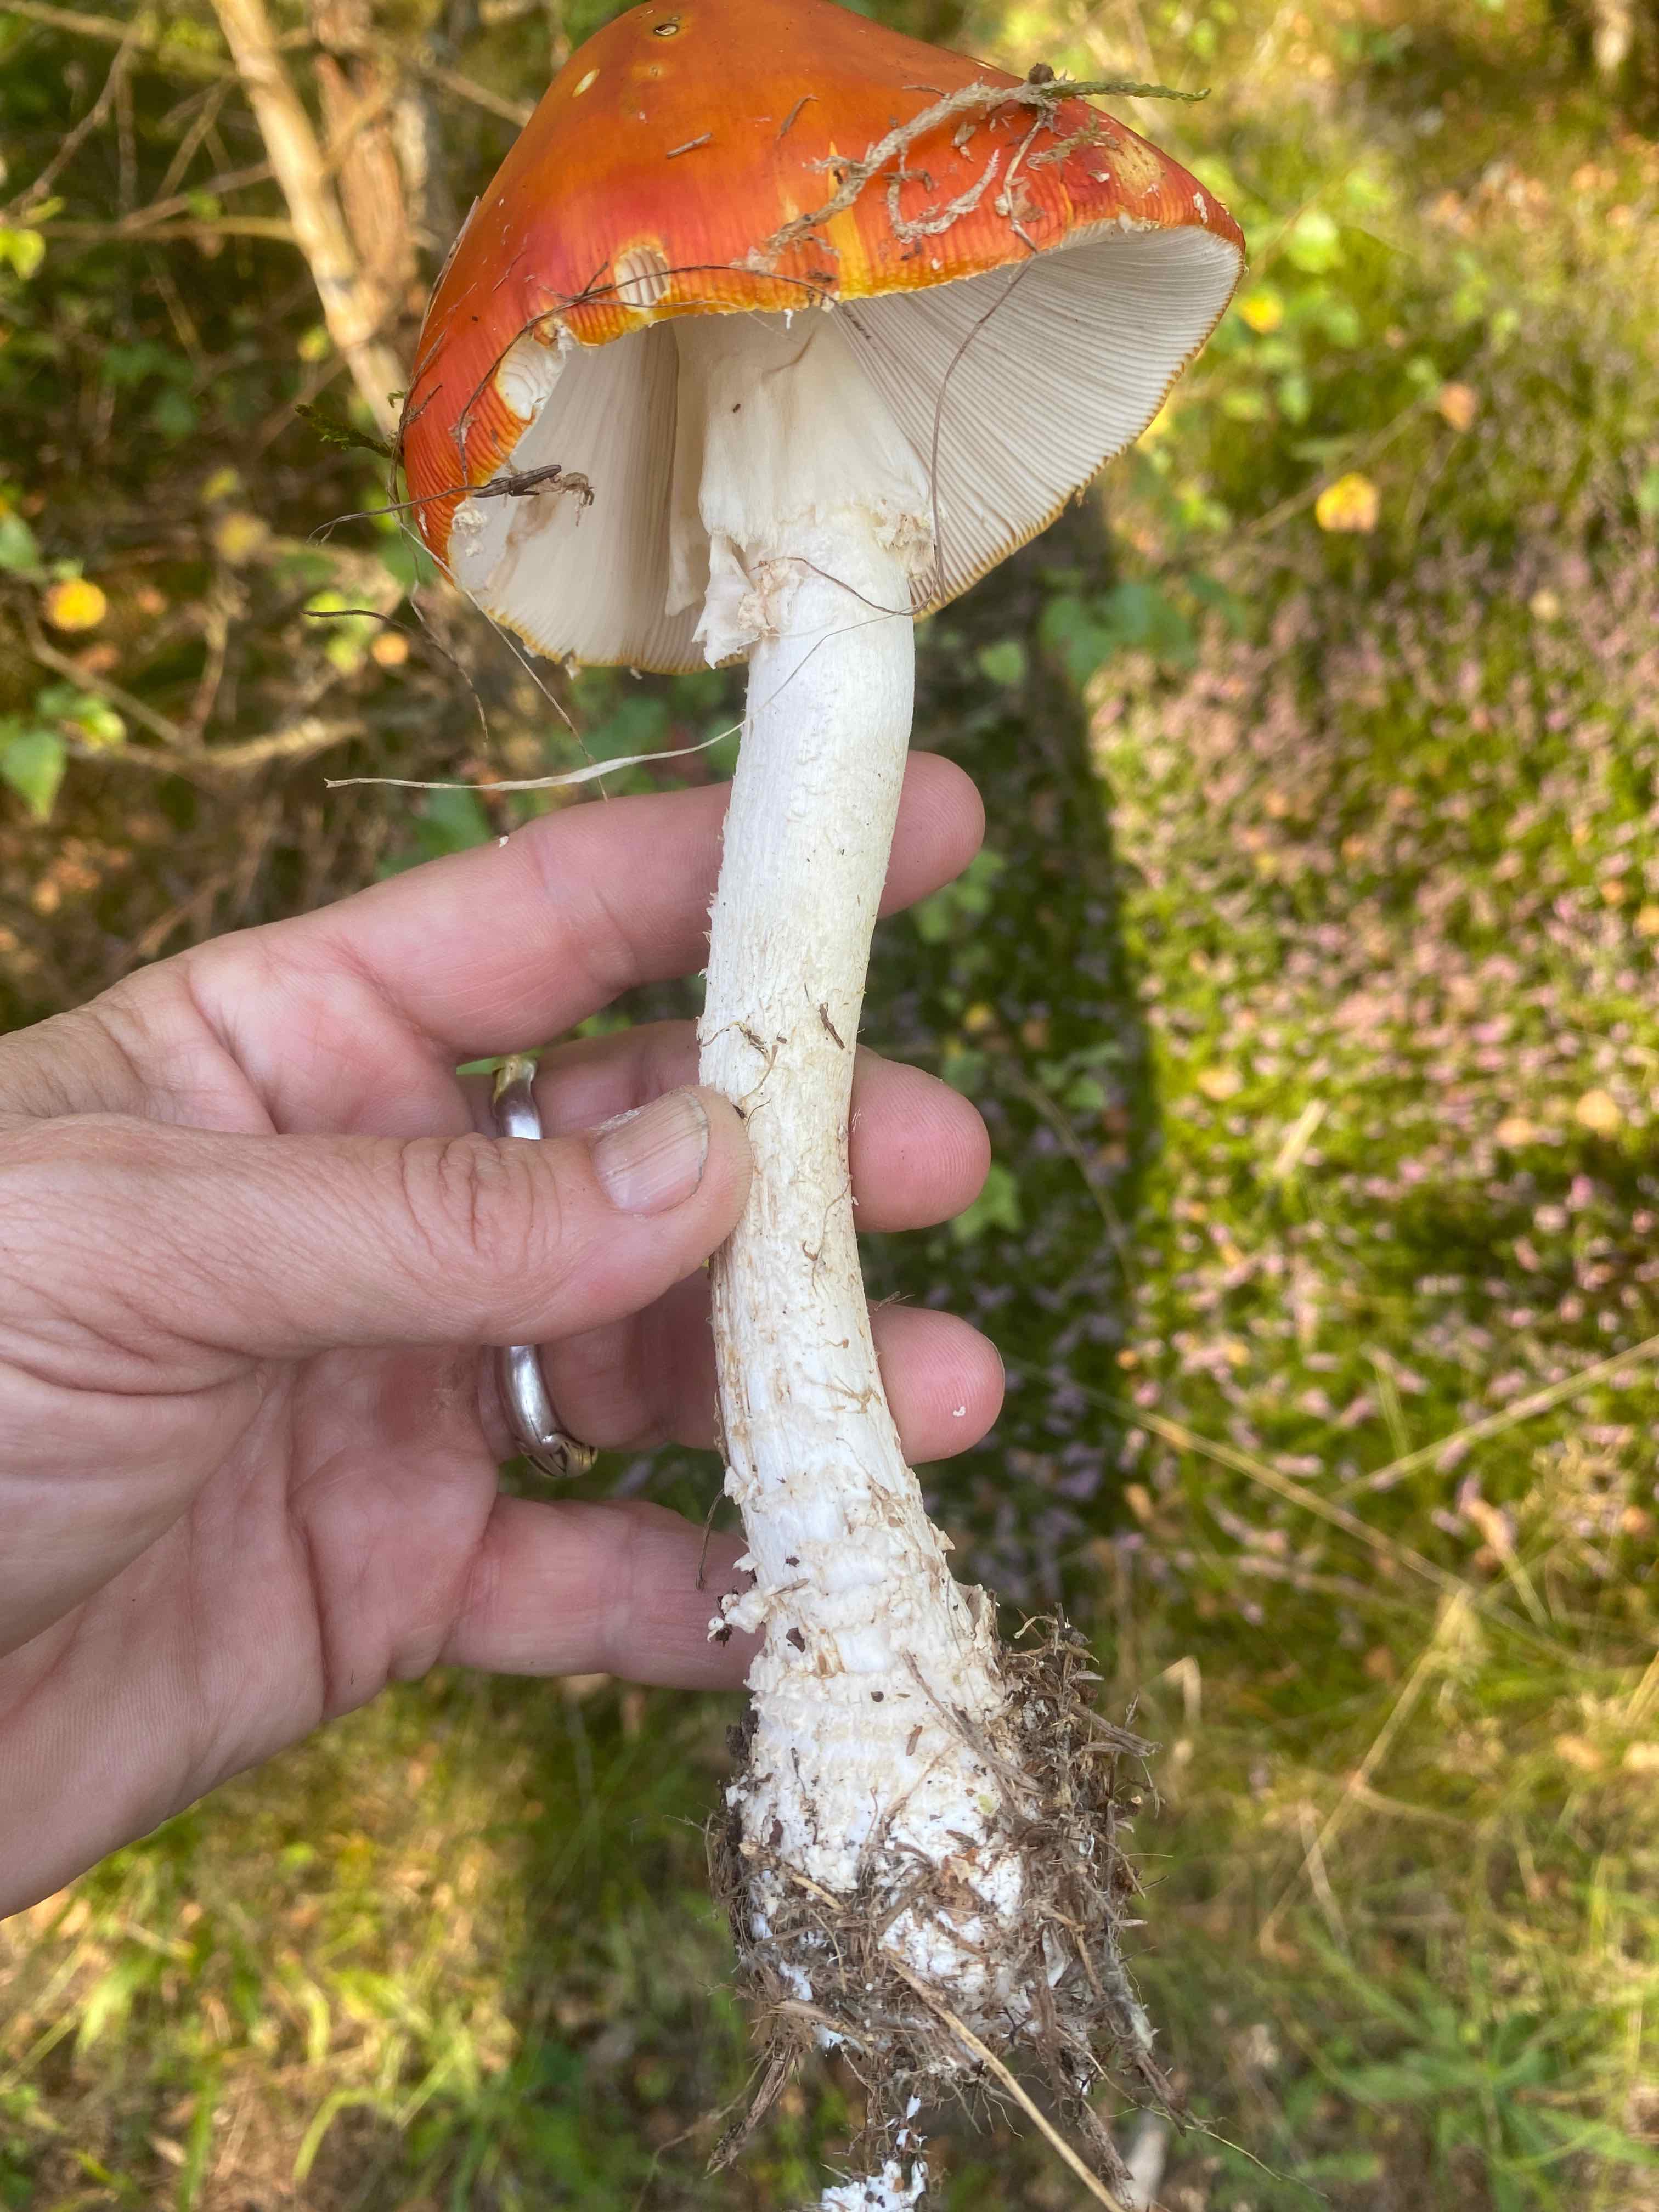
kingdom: Fungi
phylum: Basidiomycota
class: Agaricomycetes
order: Agaricales
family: Amanitaceae
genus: Amanita
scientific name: Amanita muscaria
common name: rød fluesvamp
